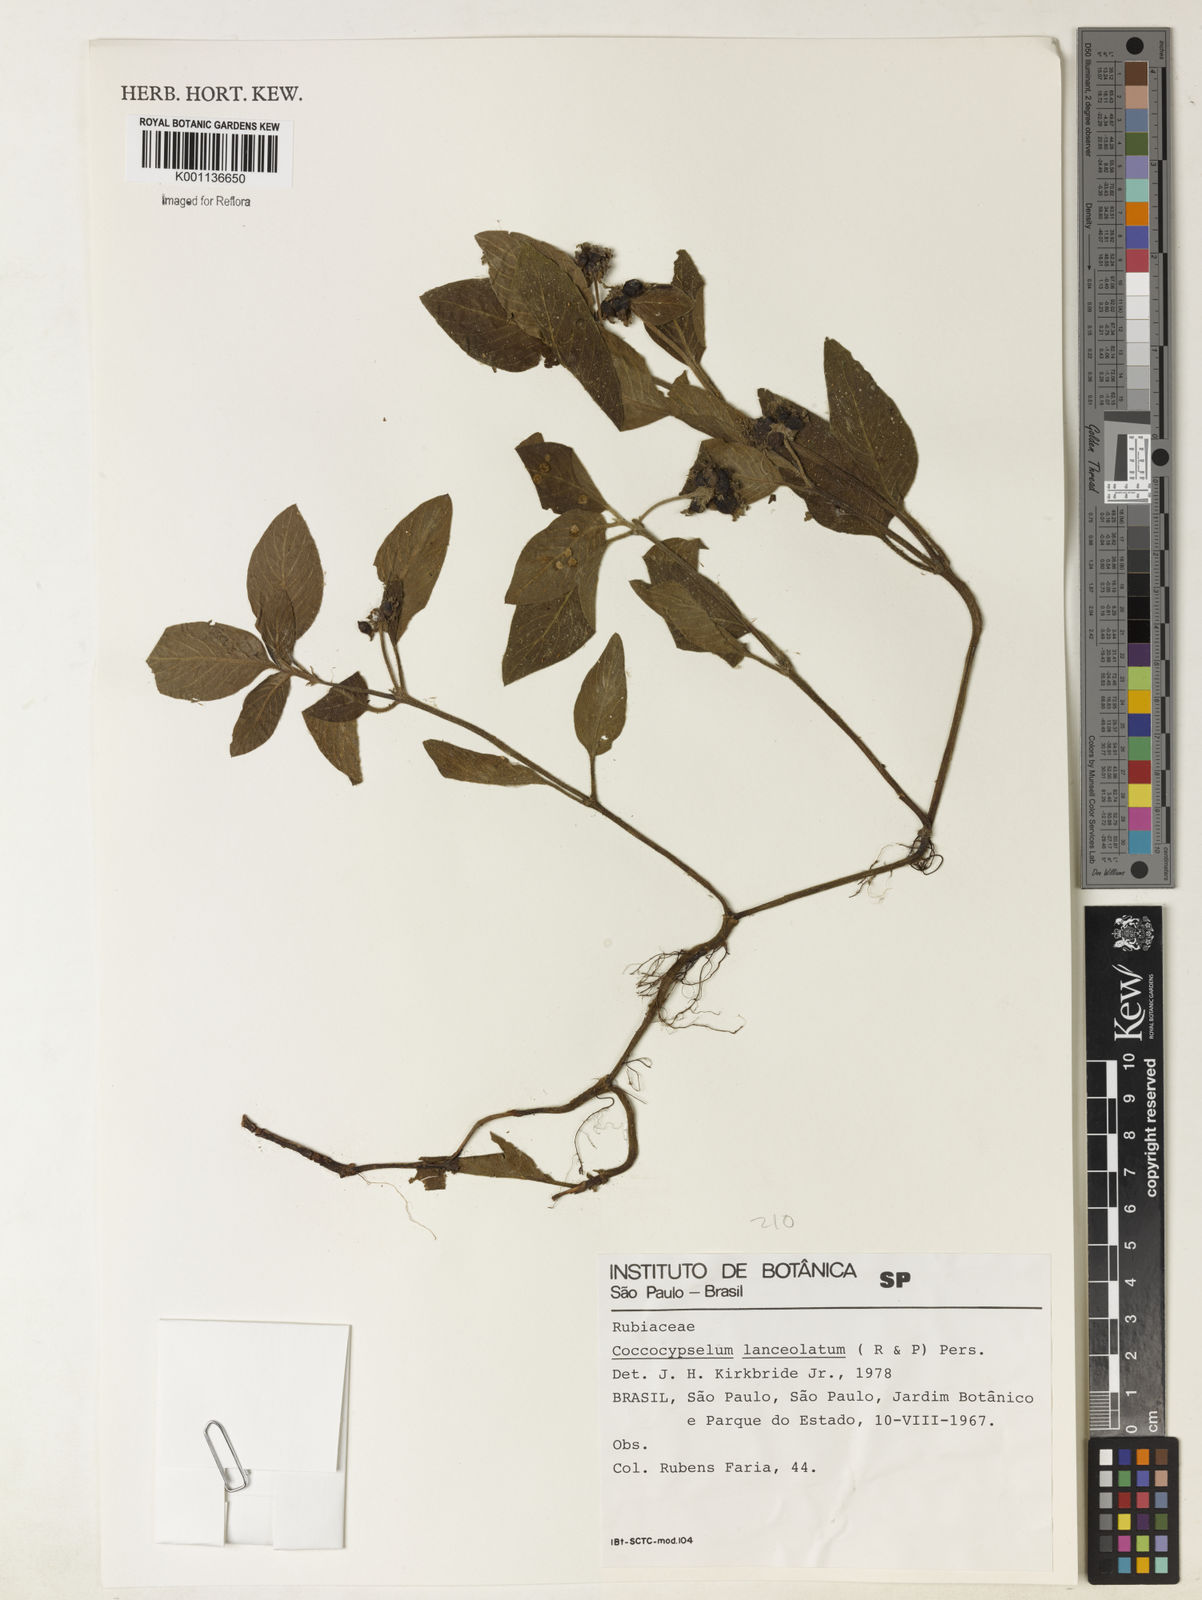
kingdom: Plantae
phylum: Tracheophyta
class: Magnoliopsida
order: Gentianales
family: Rubiaceae
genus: Coccocypselum
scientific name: Coccocypselum lanceolatum
